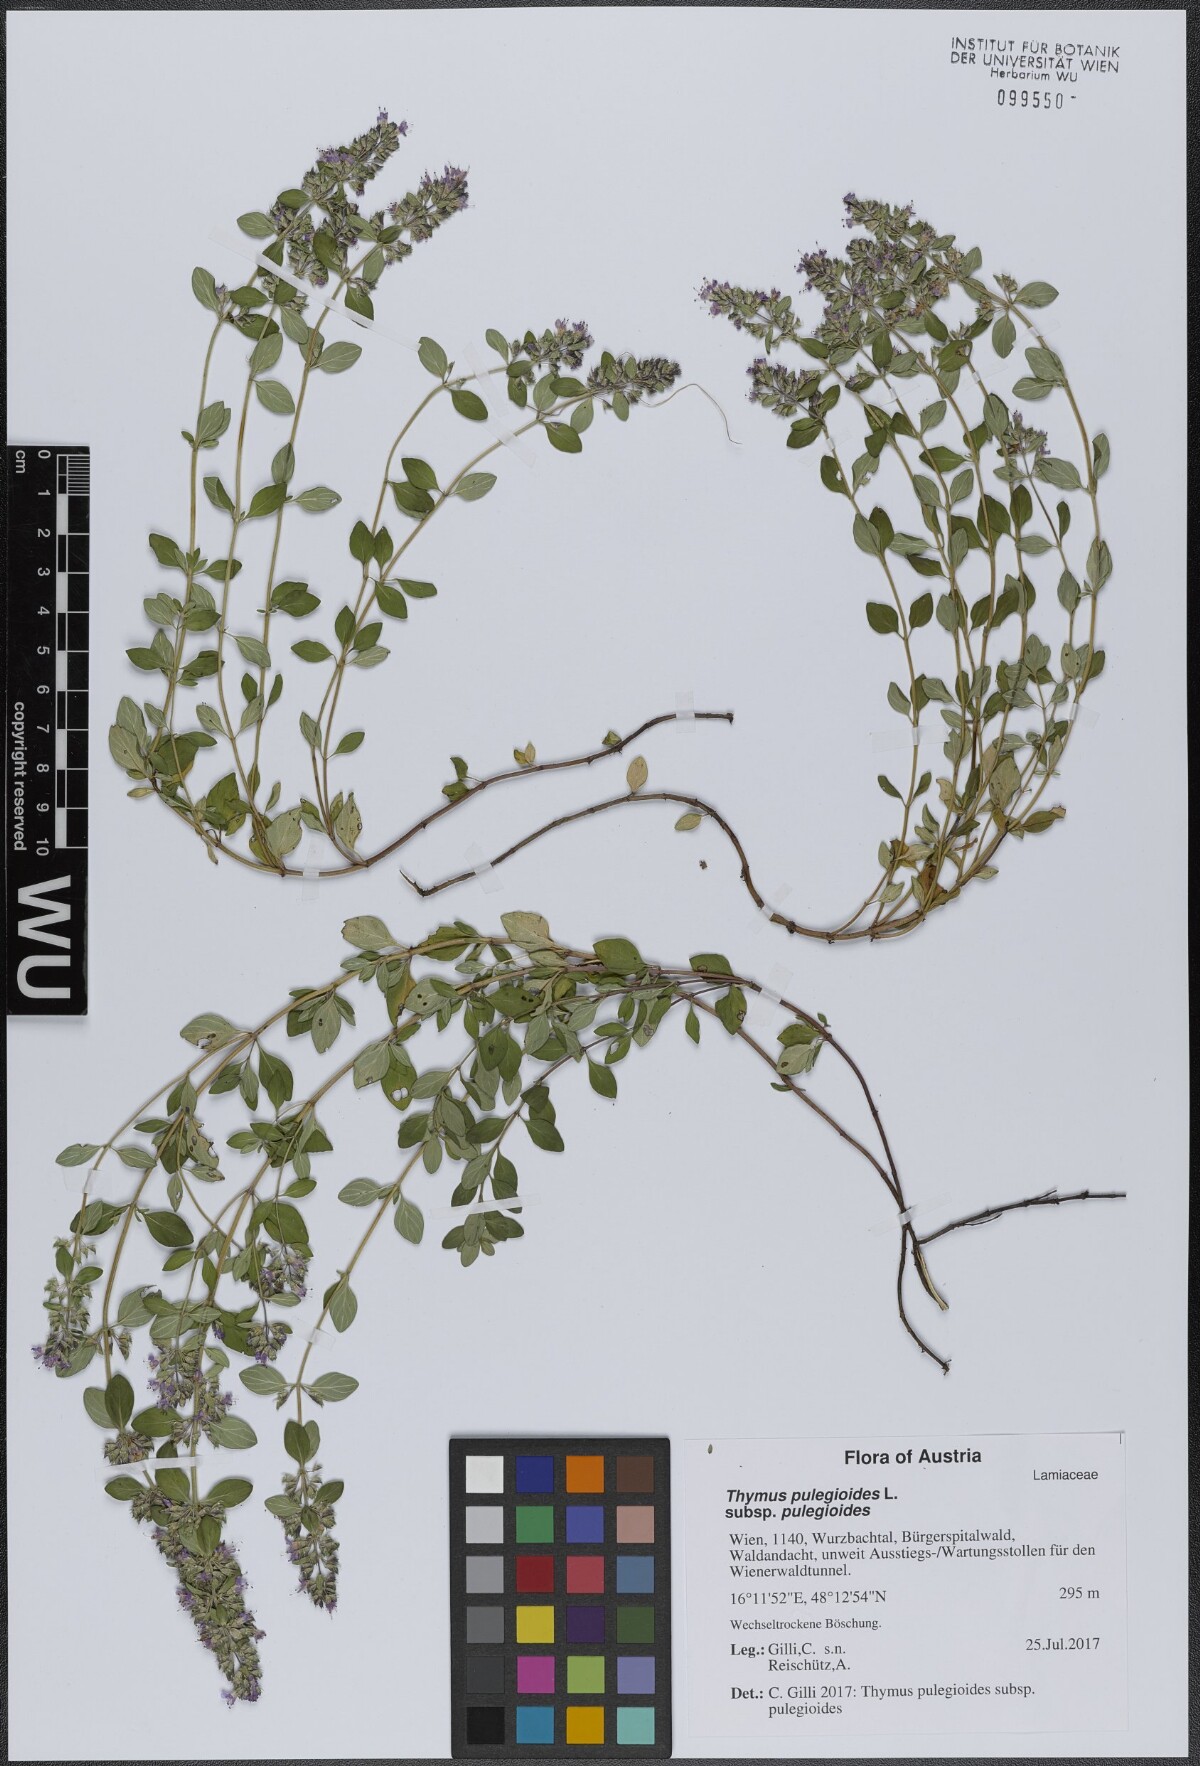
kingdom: Plantae
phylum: Tracheophyta
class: Magnoliopsida
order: Lamiales
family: Lamiaceae
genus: Thymus
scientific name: Thymus pulegioides
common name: Large thyme
